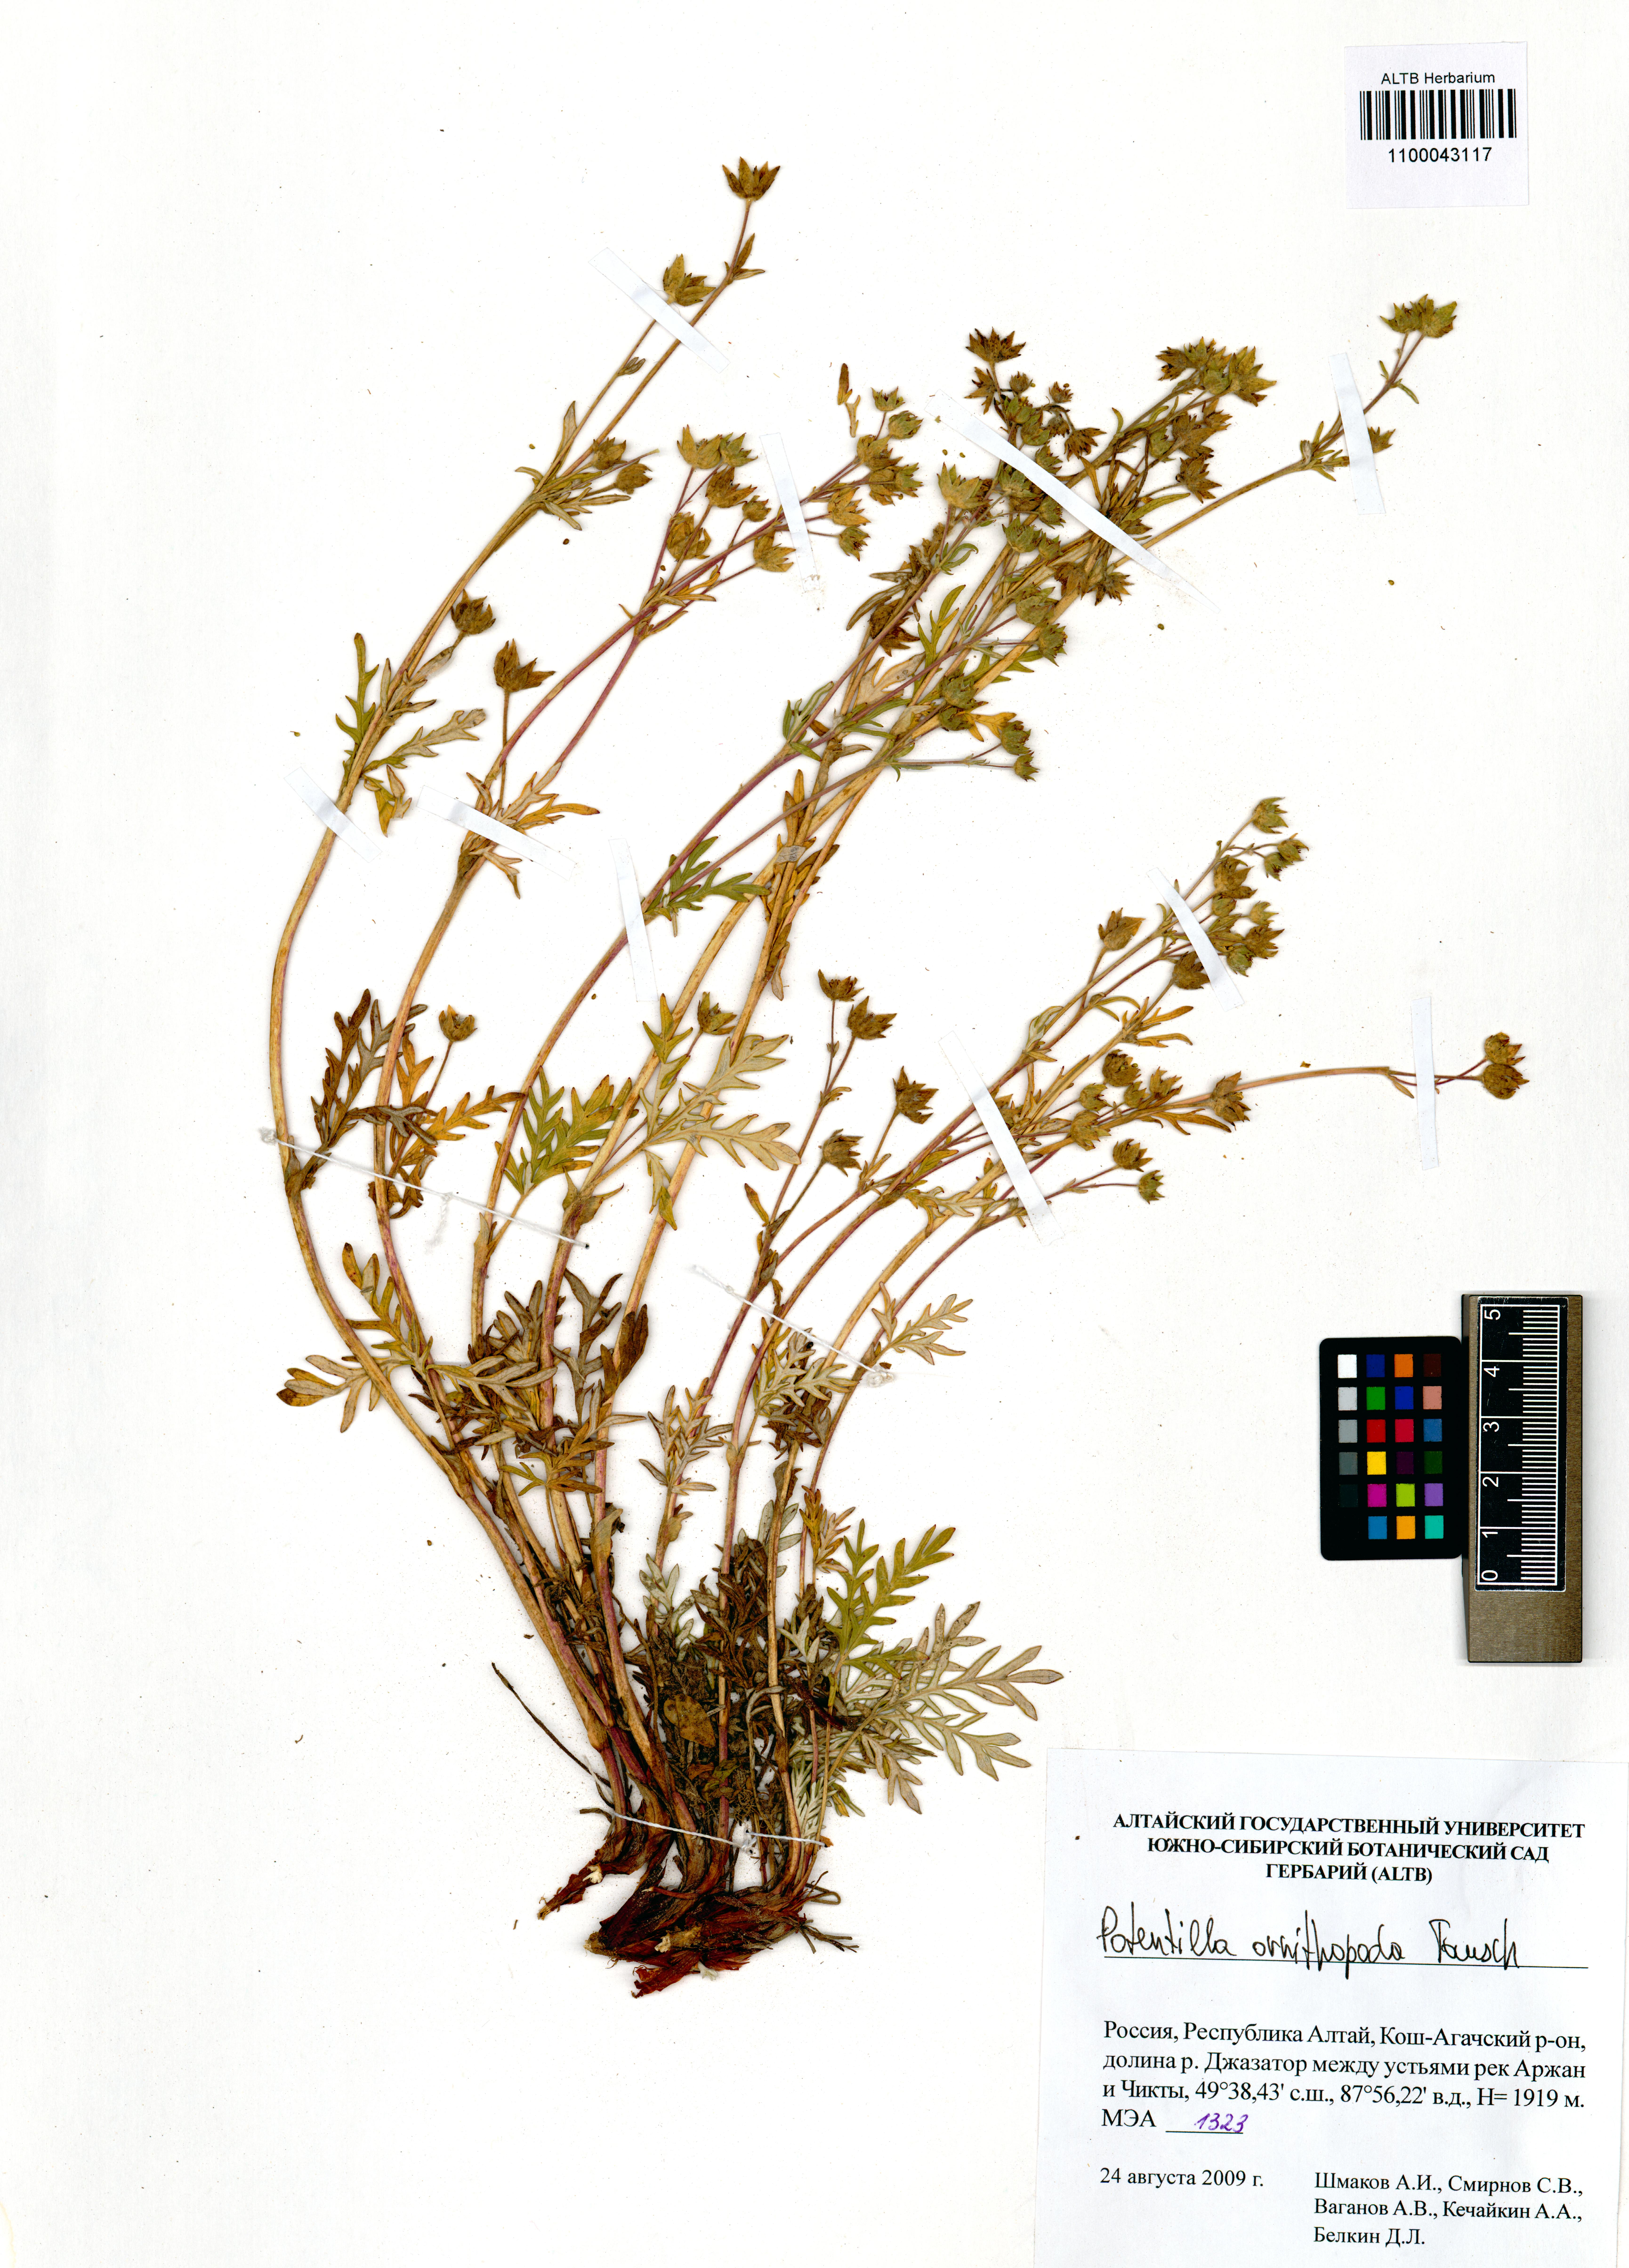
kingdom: Plantae
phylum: Tracheophyta
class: Magnoliopsida
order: Rosales
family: Rosaceae
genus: Potentilla
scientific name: Potentilla ornithopoda
